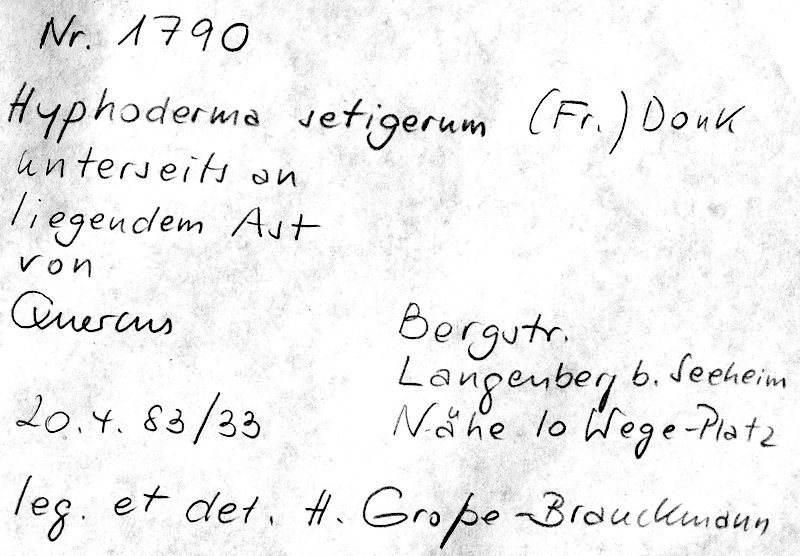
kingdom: Fungi
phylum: Basidiomycota
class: Agaricomycetes
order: Polyporales
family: Hyphodermataceae
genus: Hyphoderma
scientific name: Hyphoderma setigerum
